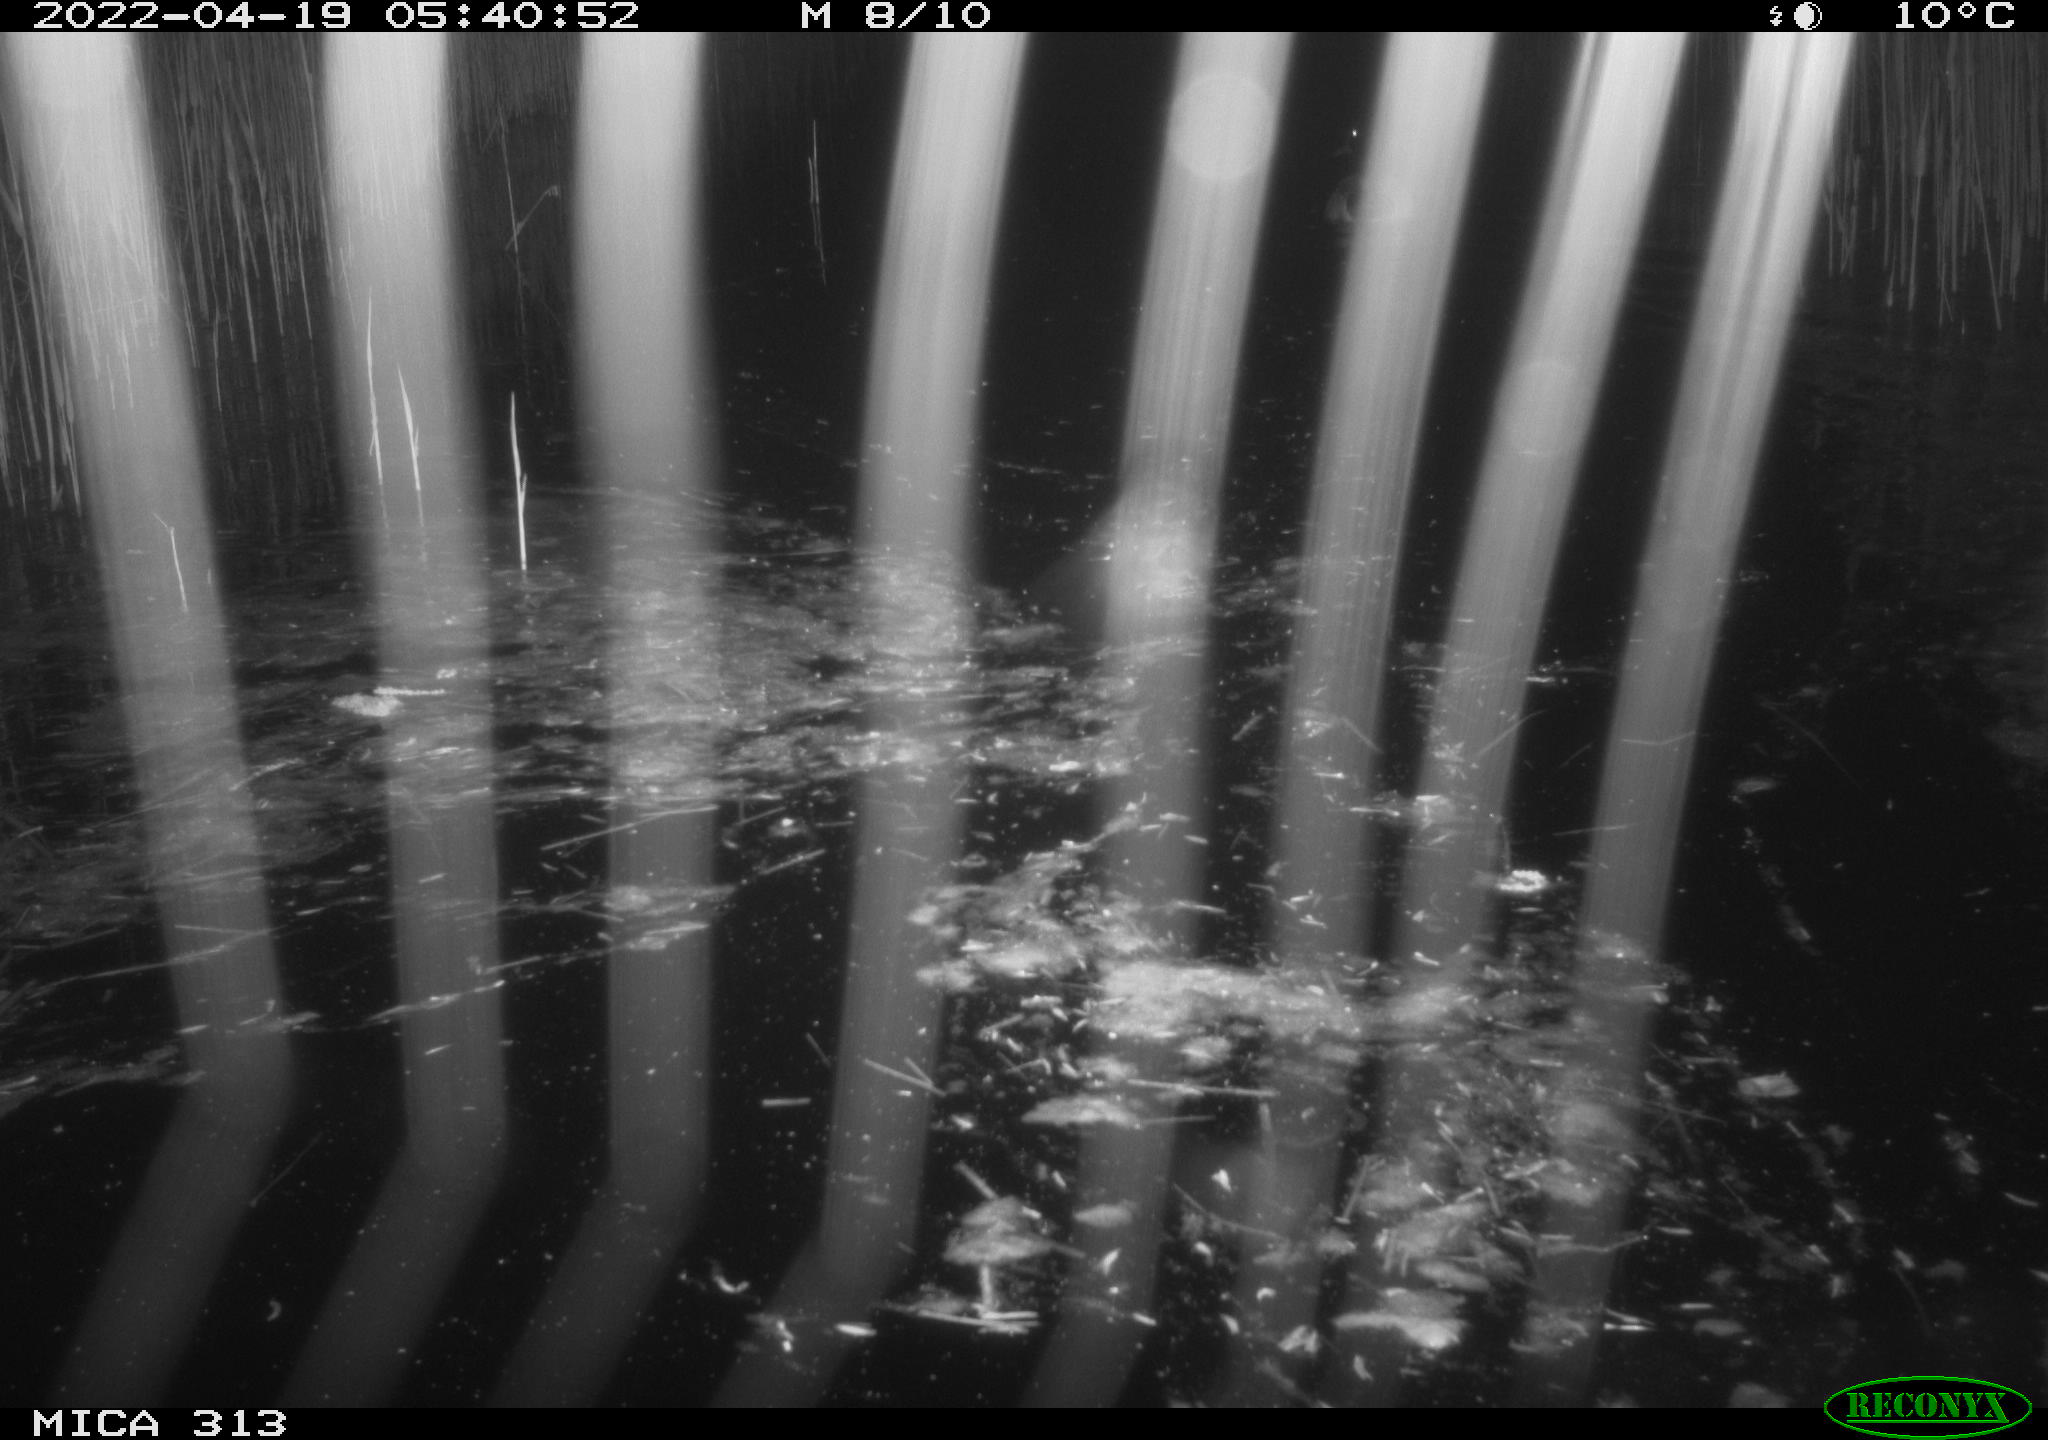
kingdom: Animalia
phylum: Chordata
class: Aves
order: Anseriformes
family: Anatidae
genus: Anas
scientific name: Anas platyrhynchos
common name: Mallard
